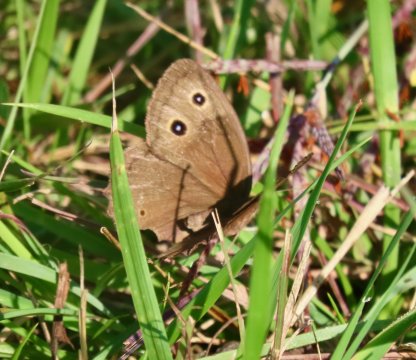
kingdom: Animalia
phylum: Arthropoda
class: Insecta
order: Lepidoptera
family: Nymphalidae
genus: Cercyonis
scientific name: Cercyonis pegala
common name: Common Wood-Nymph
